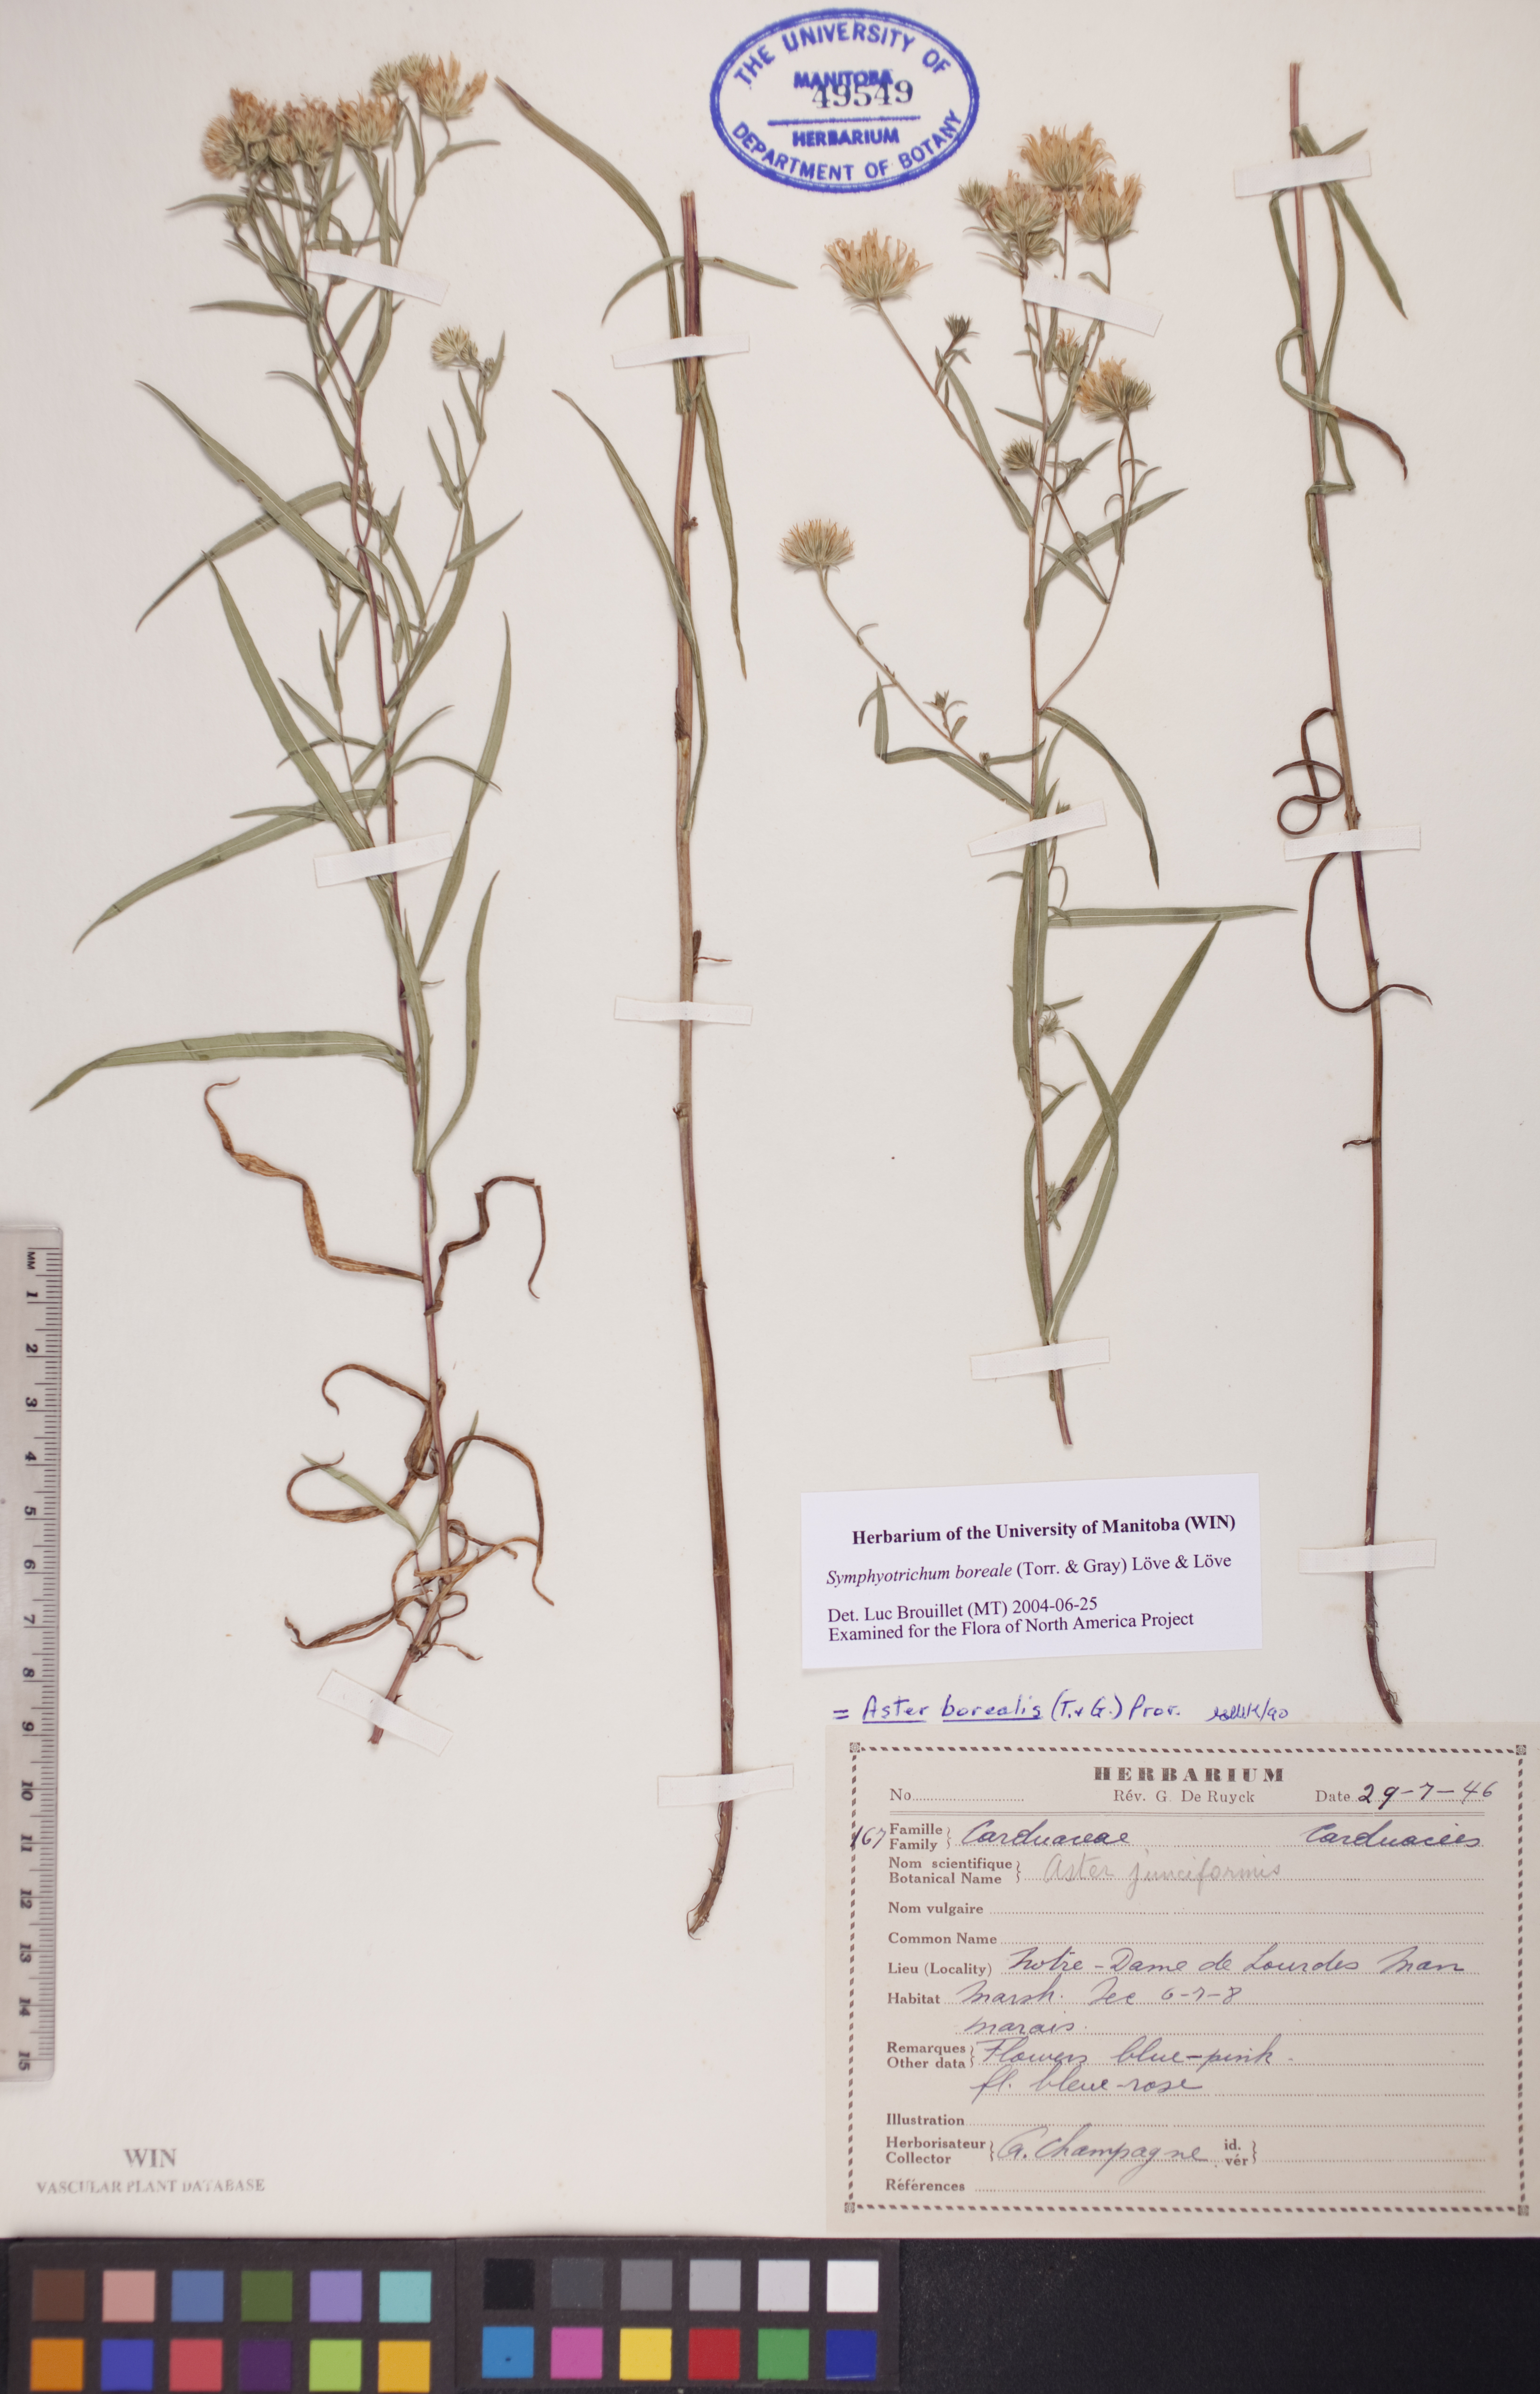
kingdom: Plantae
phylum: Tracheophyta
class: Magnoliopsida
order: Asterales
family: Asteraceae
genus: Symphyotrichum
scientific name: Symphyotrichum boreale
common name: Northern bog aster
